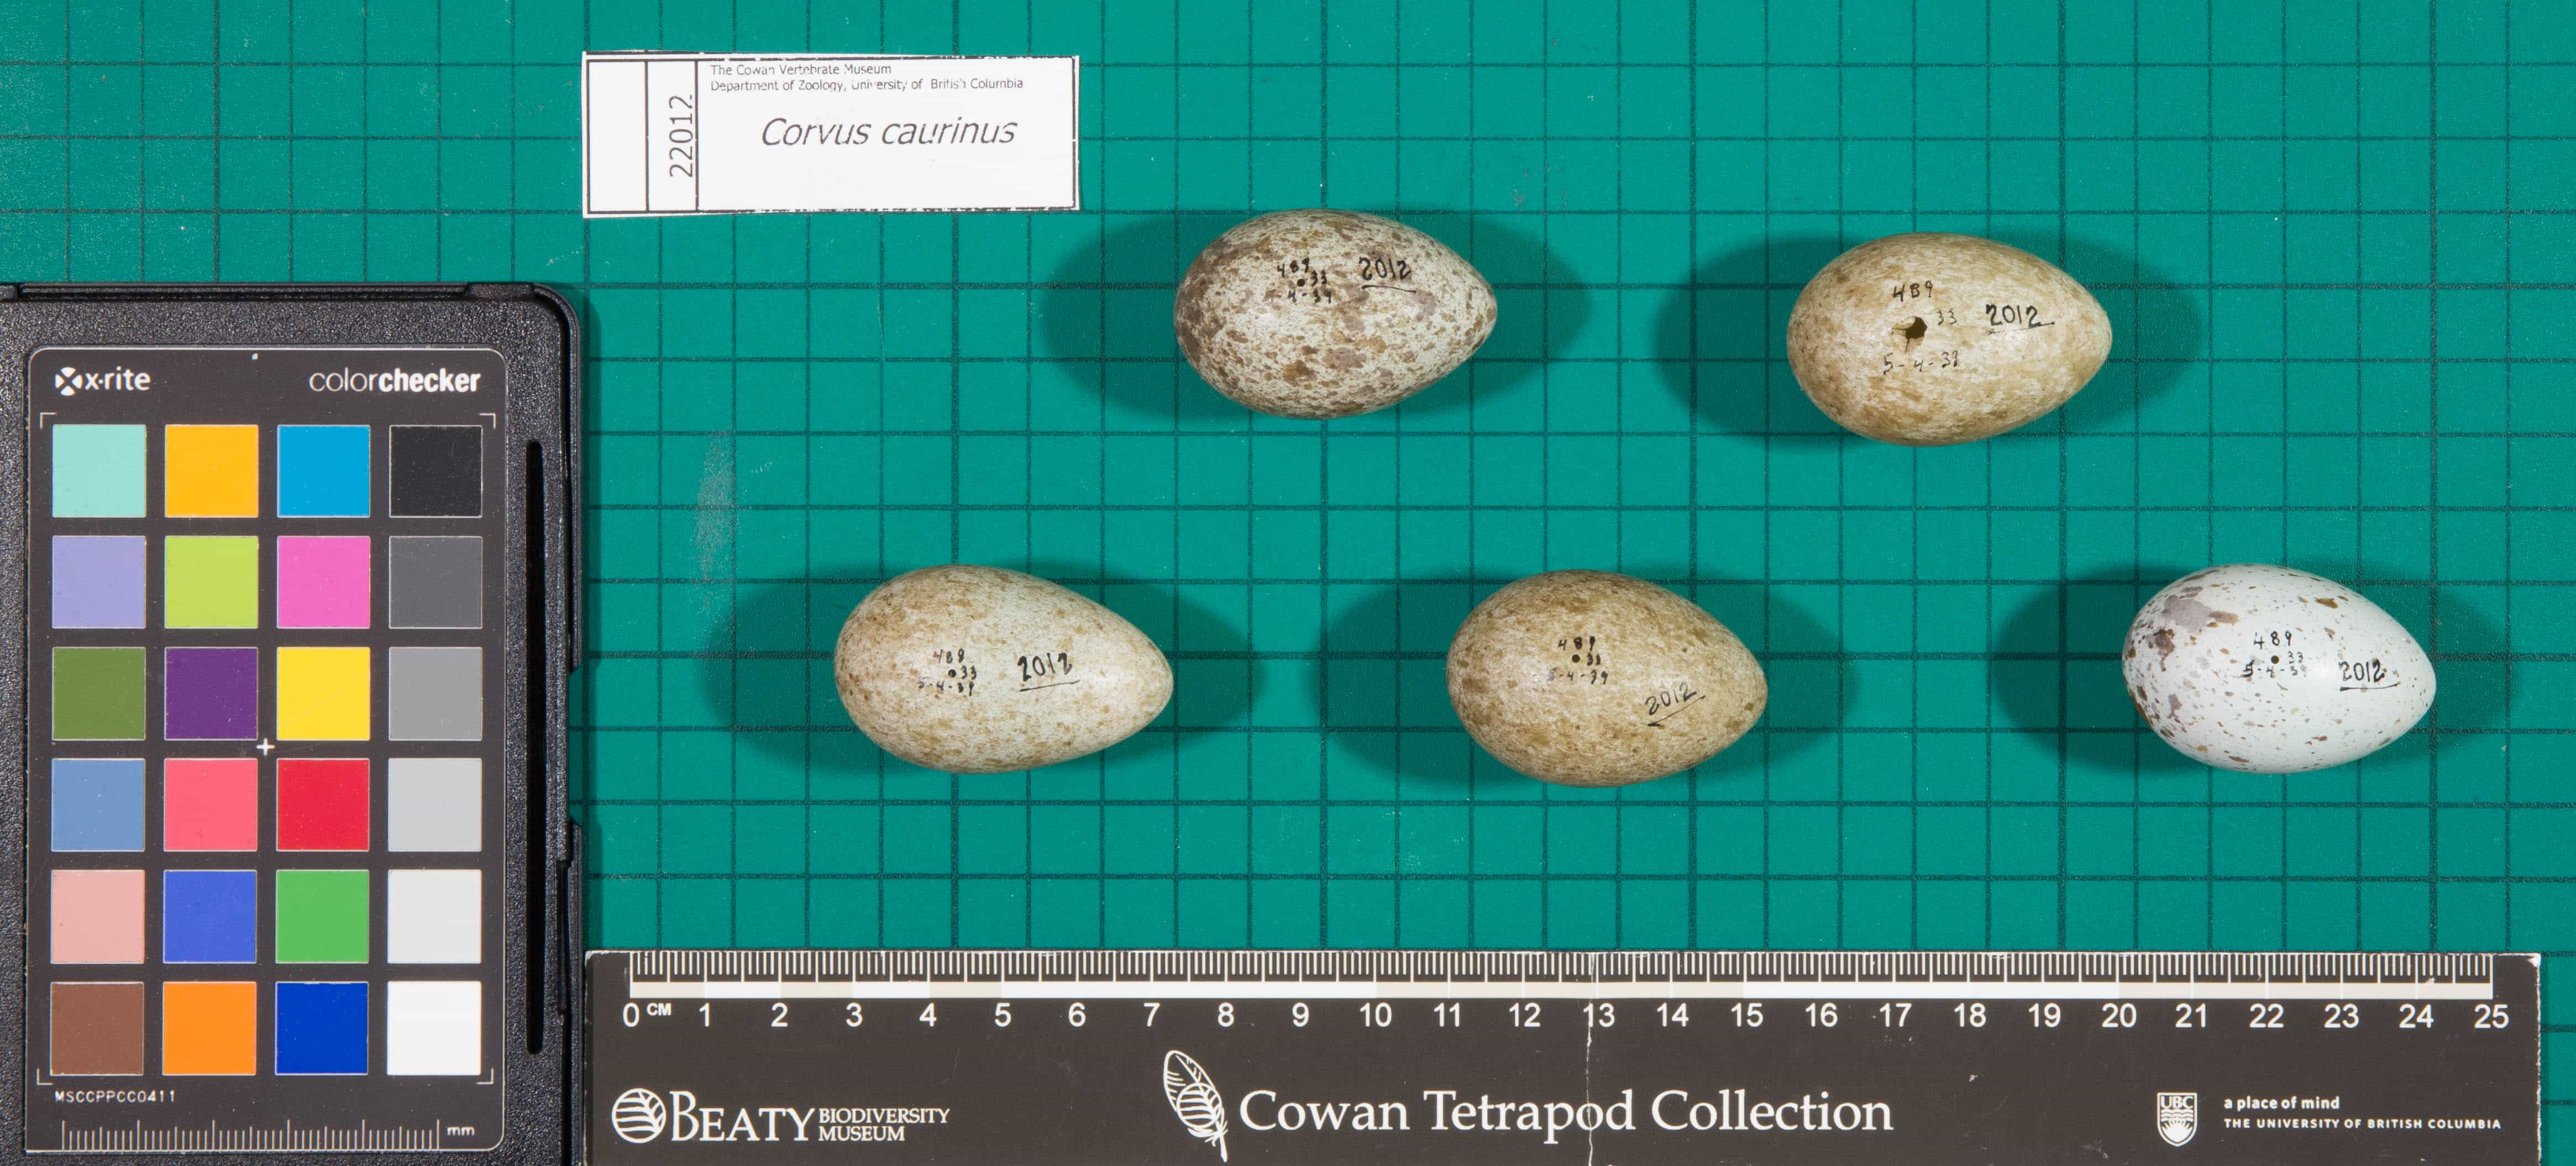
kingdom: Animalia
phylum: Chordata
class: Aves
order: Passeriformes
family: Corvidae
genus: Corvus
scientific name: Corvus brachyrhynchos
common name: American Crow
